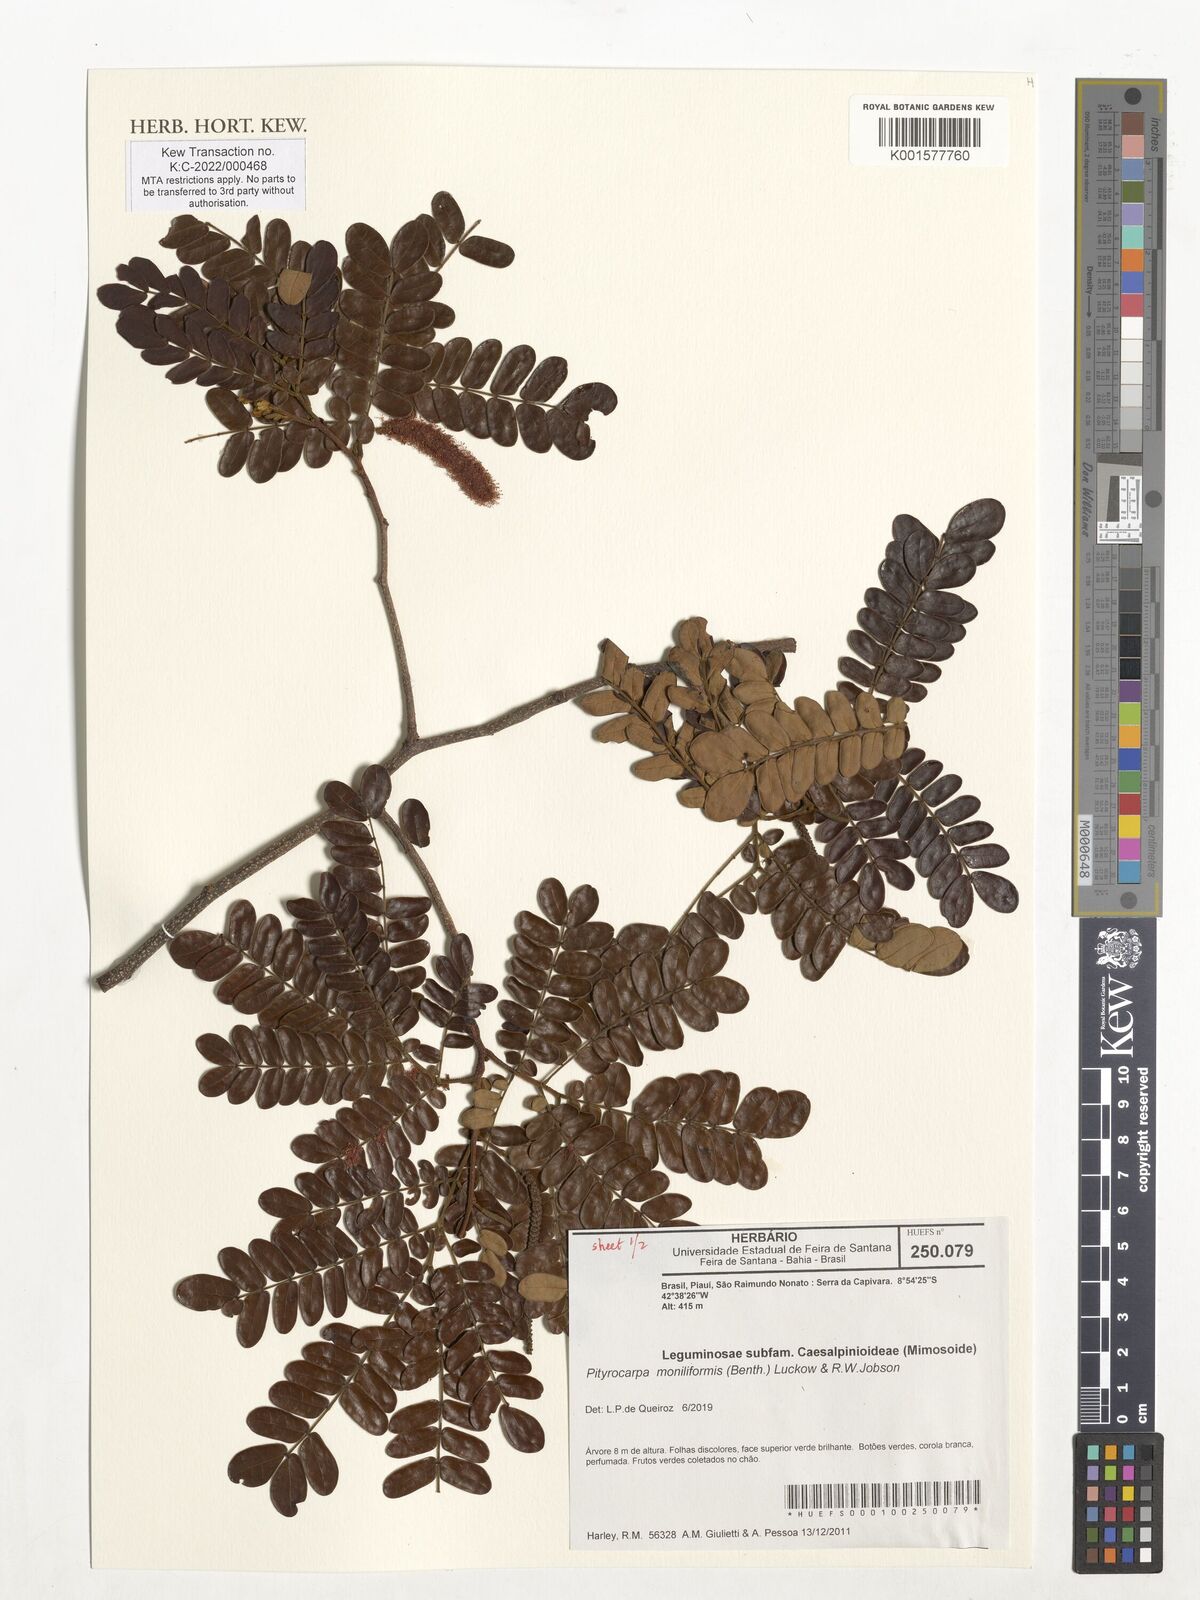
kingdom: Plantae
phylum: Tracheophyta
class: Magnoliopsida
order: Fabales
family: Fabaceae
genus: Pityrocarpa
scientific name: Pityrocarpa moniliformis
